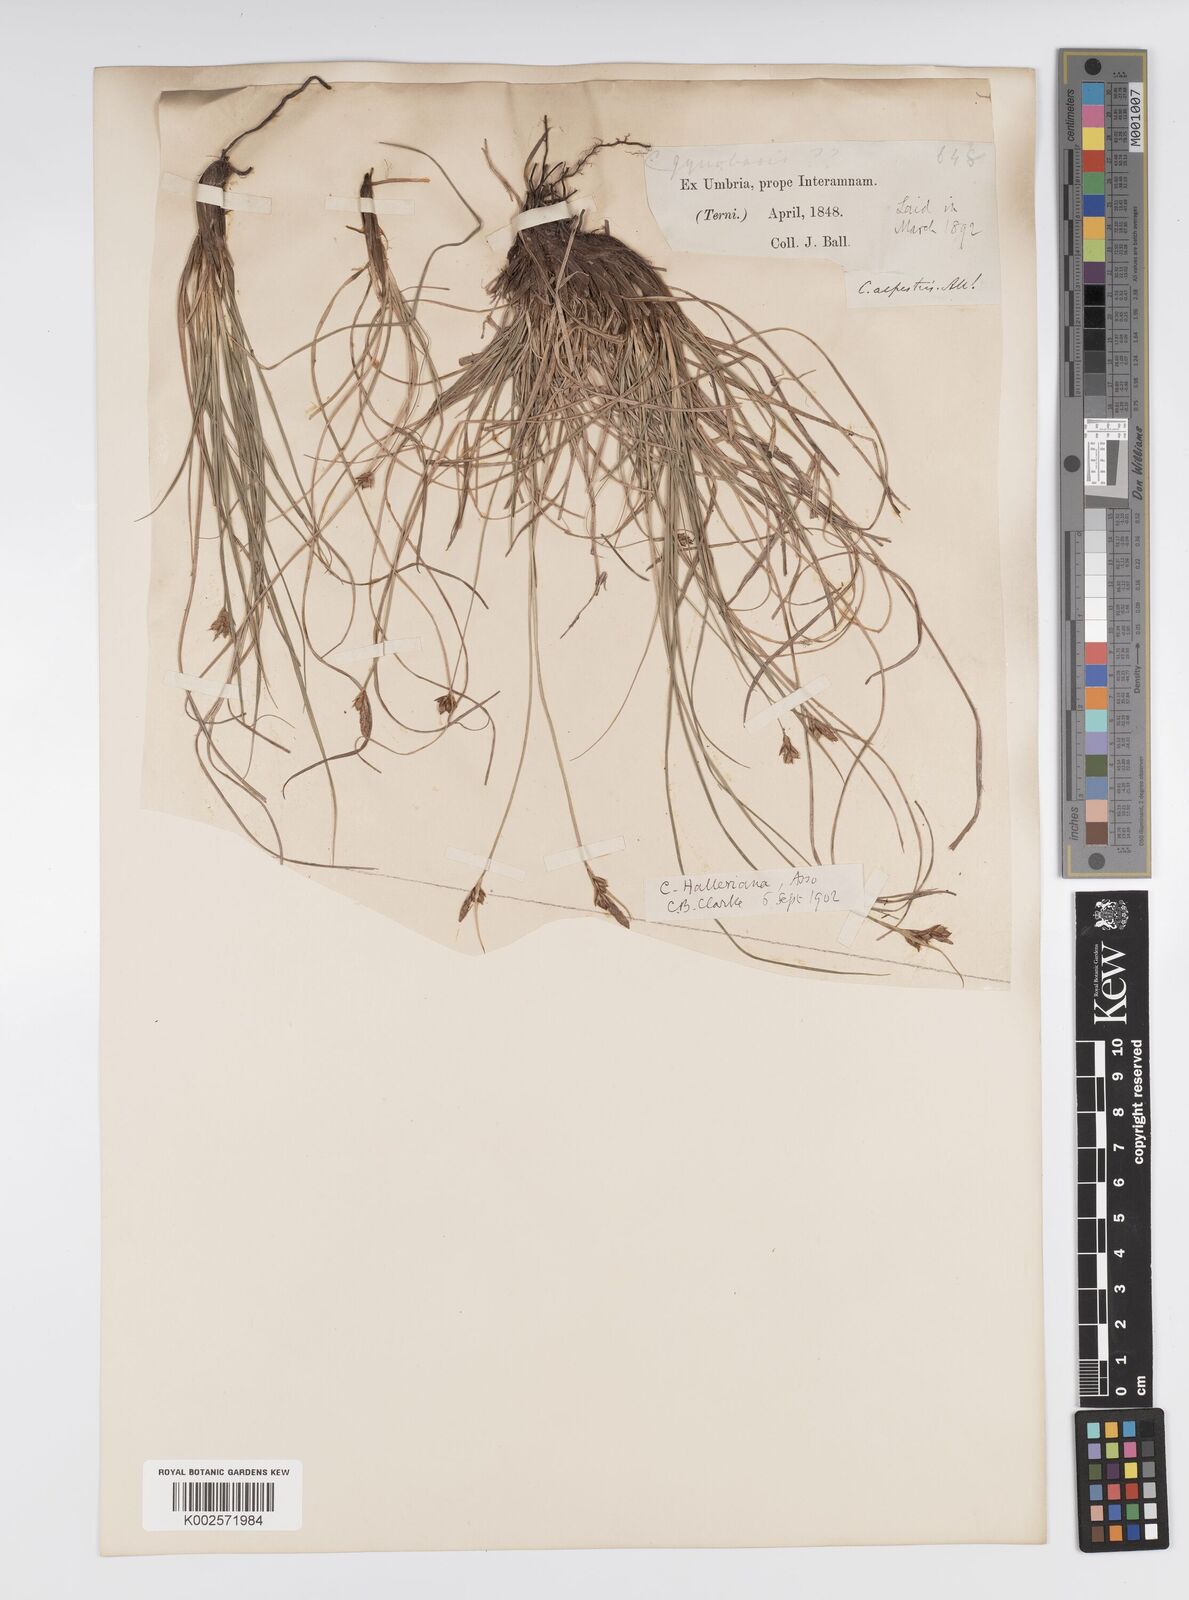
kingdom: Plantae
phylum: Tracheophyta
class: Liliopsida
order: Poales
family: Cyperaceae
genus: Carex
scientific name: Carex halleriana
